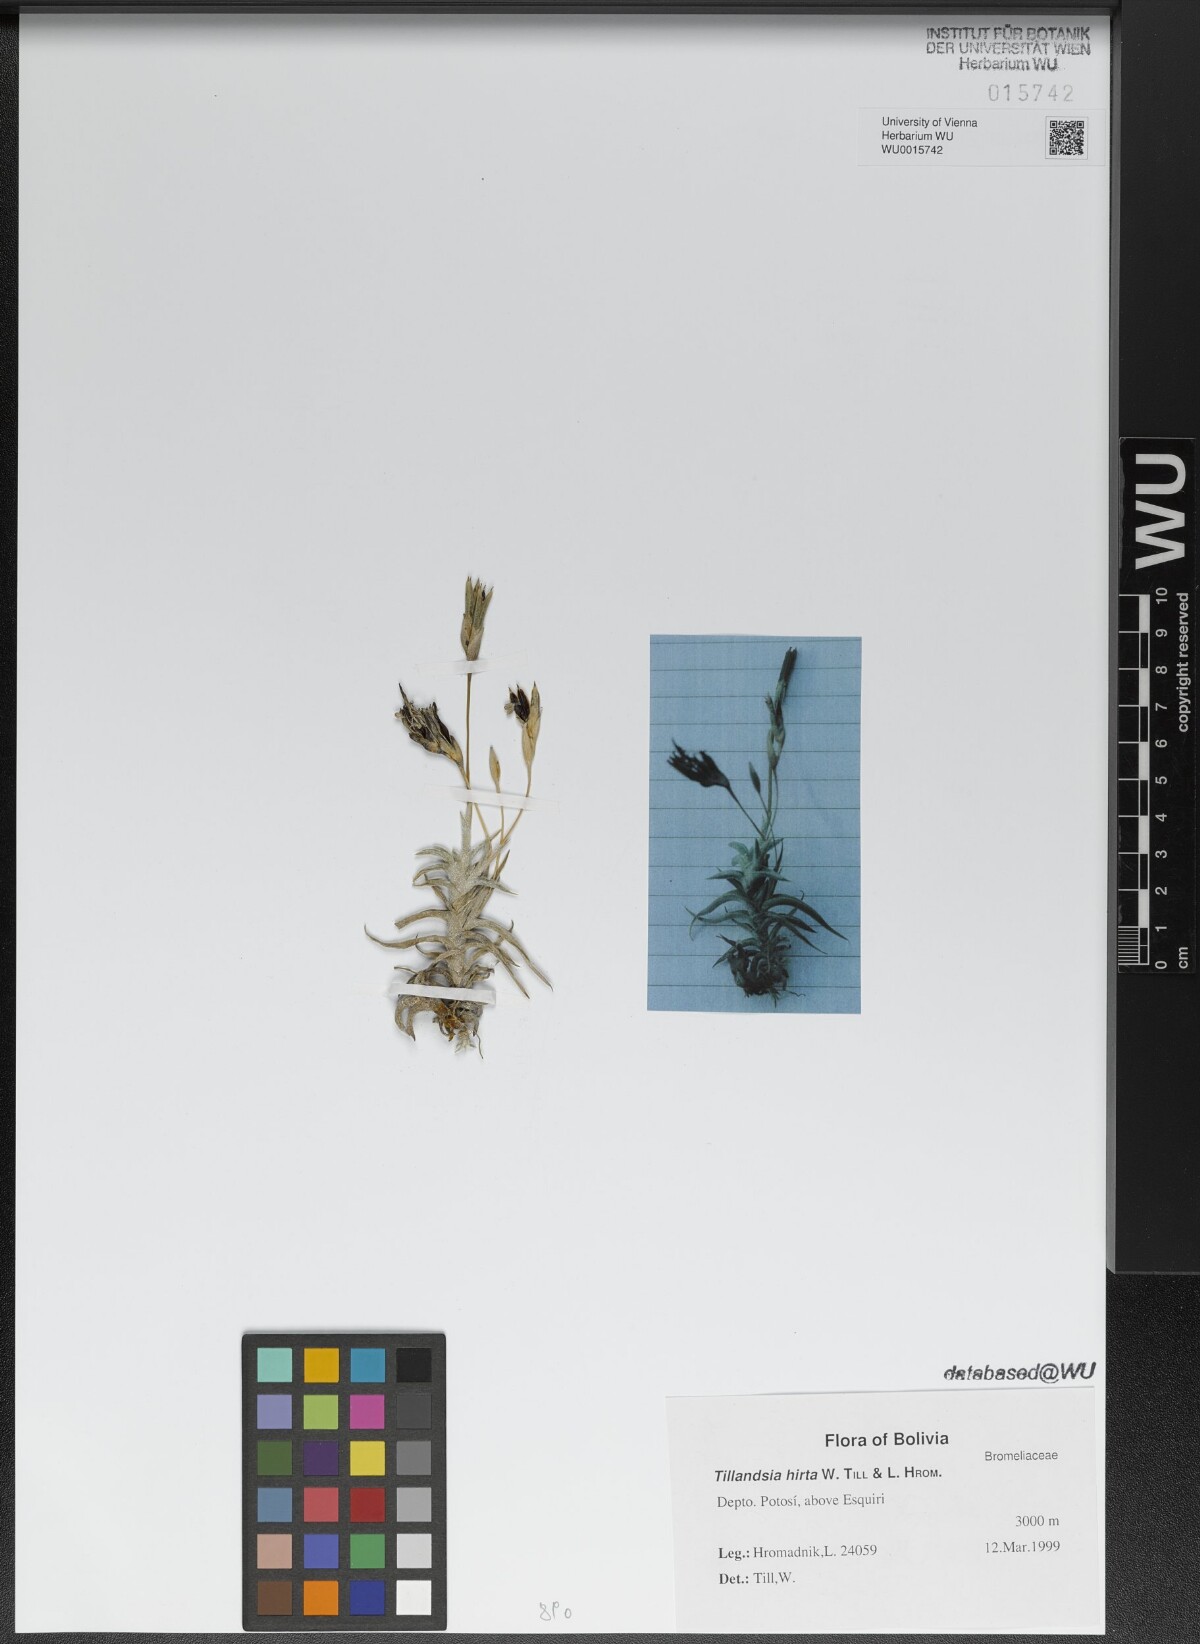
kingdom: Plantae
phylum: Tracheophyta
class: Liliopsida
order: Poales
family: Bromeliaceae
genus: Tillandsia
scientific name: Tillandsia hirta
